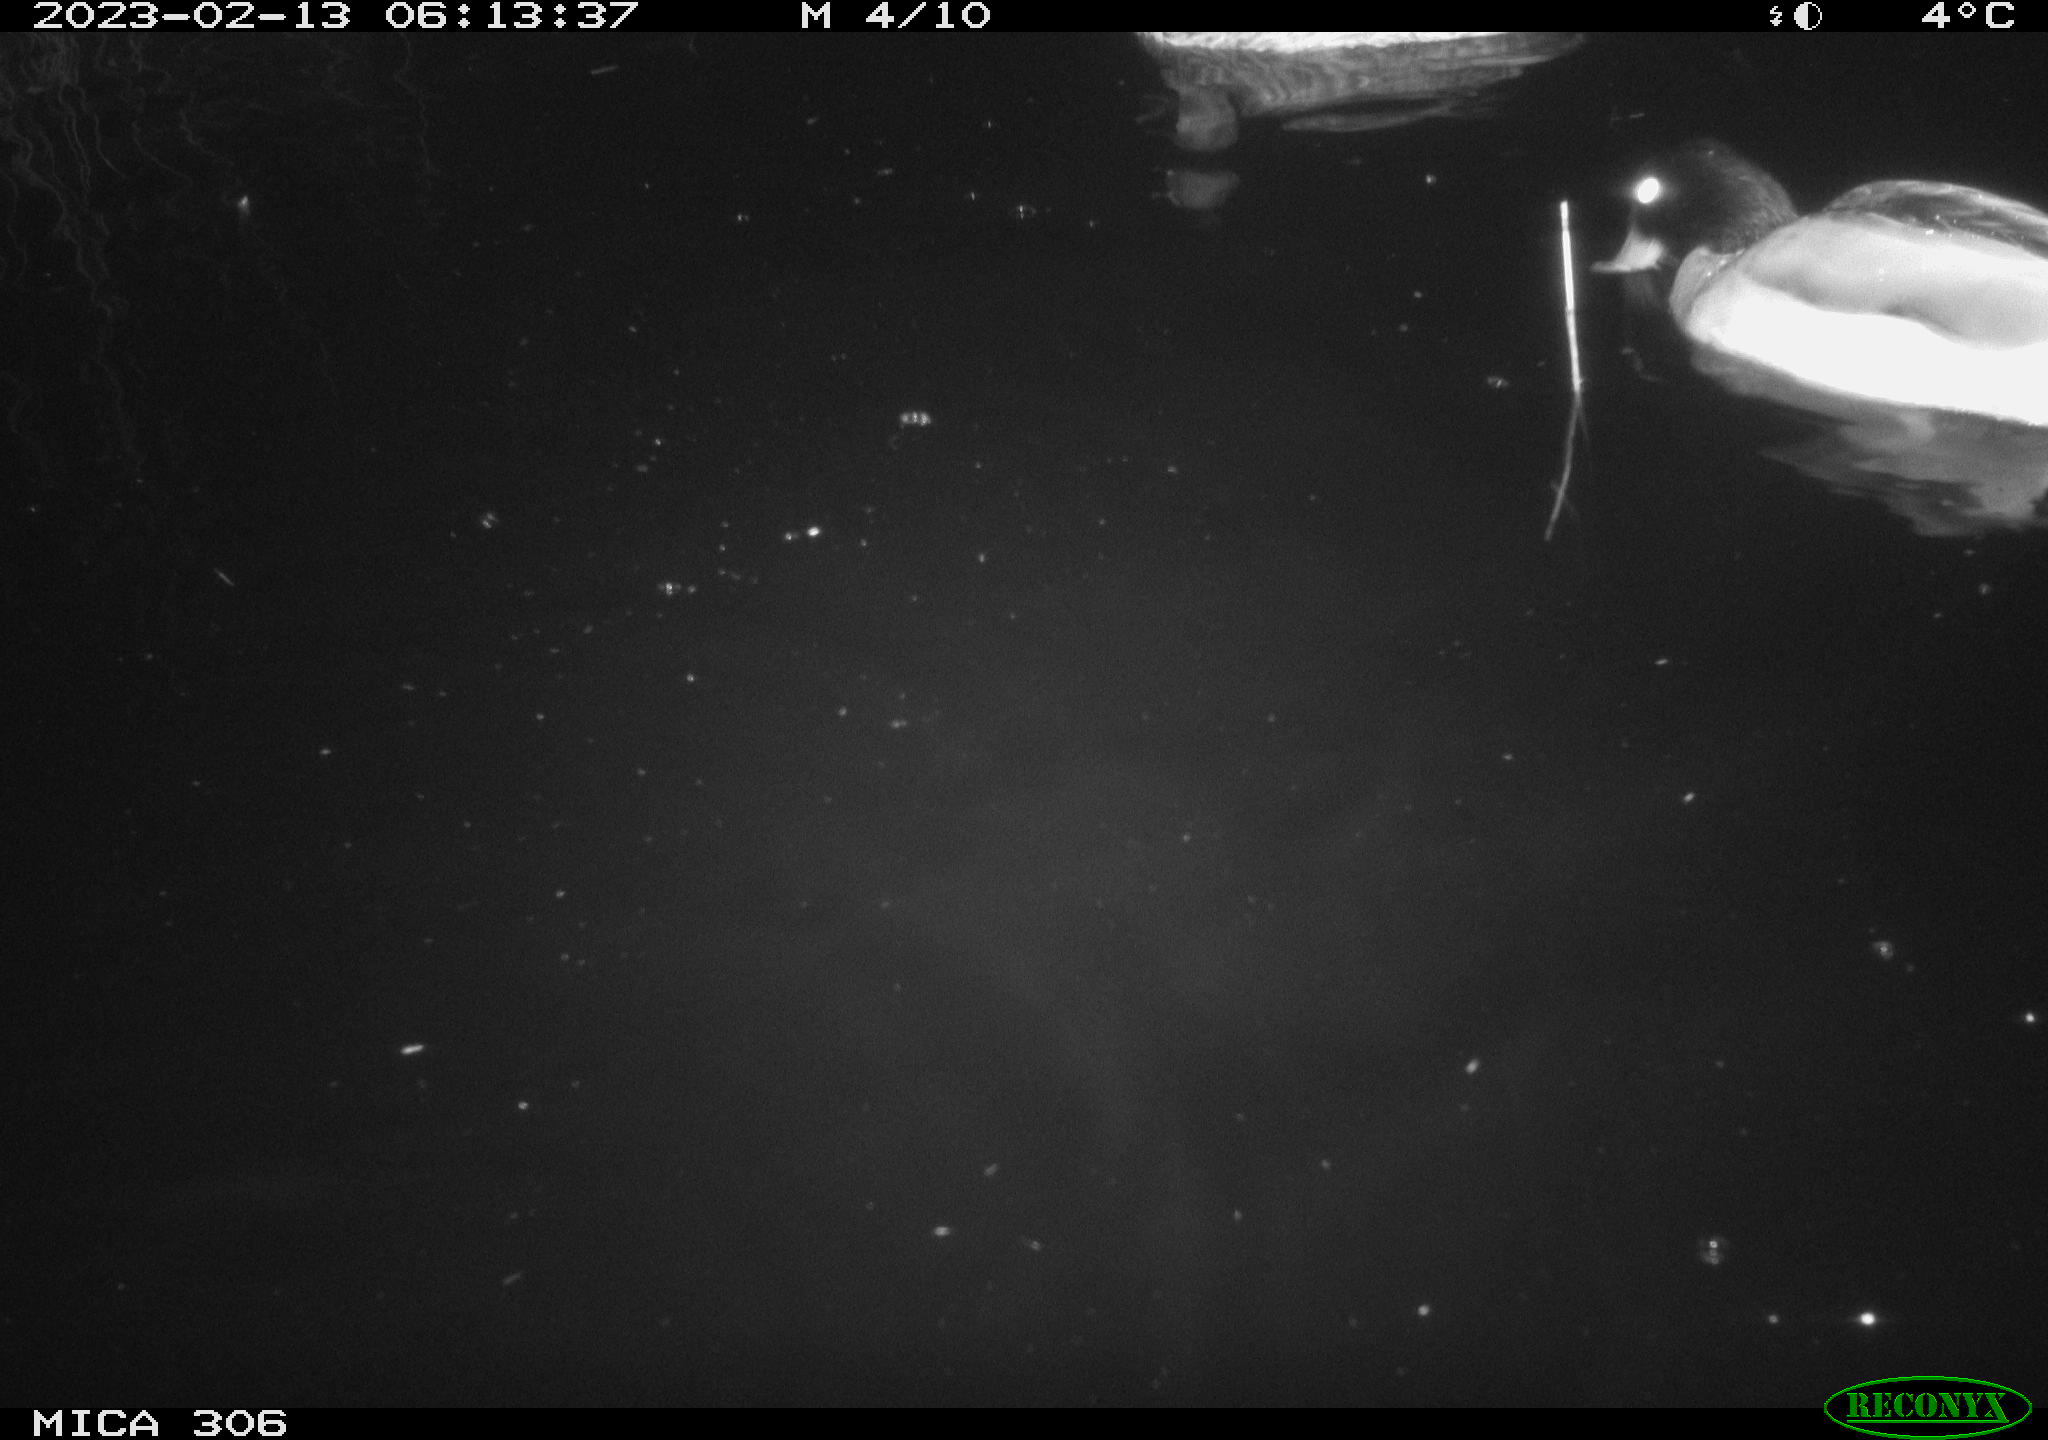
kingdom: Animalia
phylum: Chordata
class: Mammalia
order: Rodentia
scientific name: Rodentia
